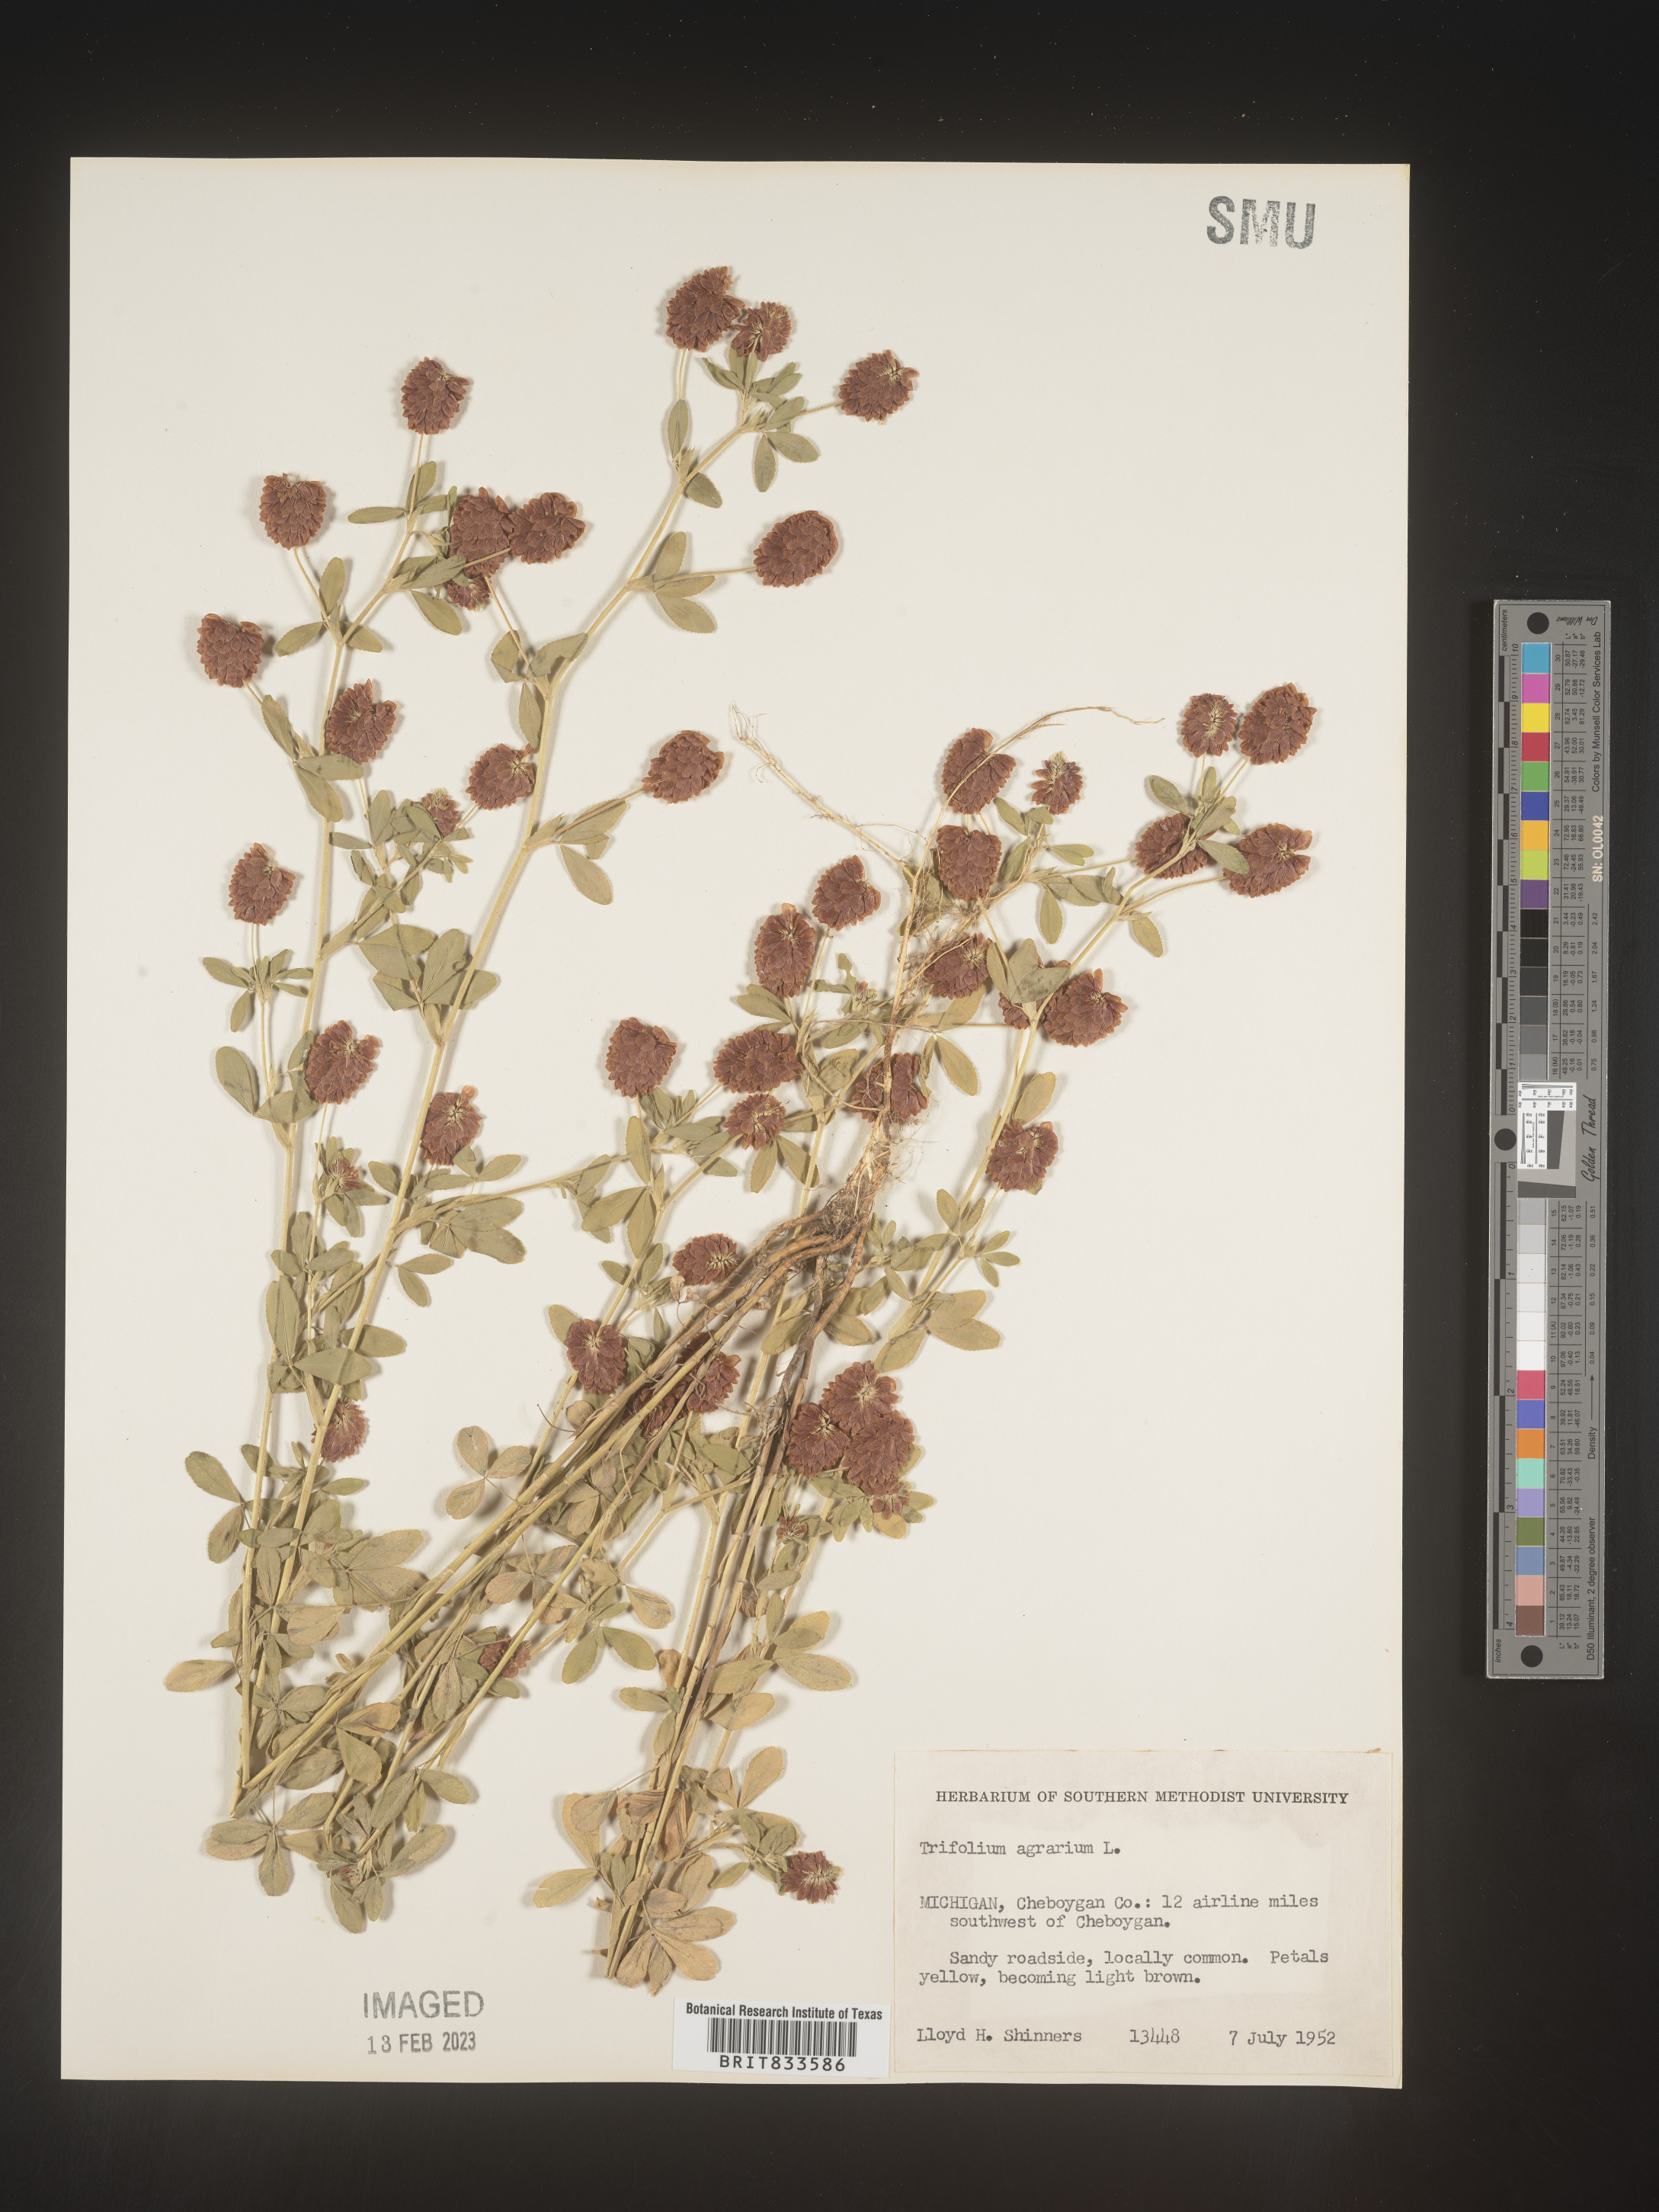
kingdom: Plantae
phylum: Tracheophyta
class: Magnoliopsida
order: Fabales
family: Fabaceae
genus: Trifolium
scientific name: Trifolium agrarium
